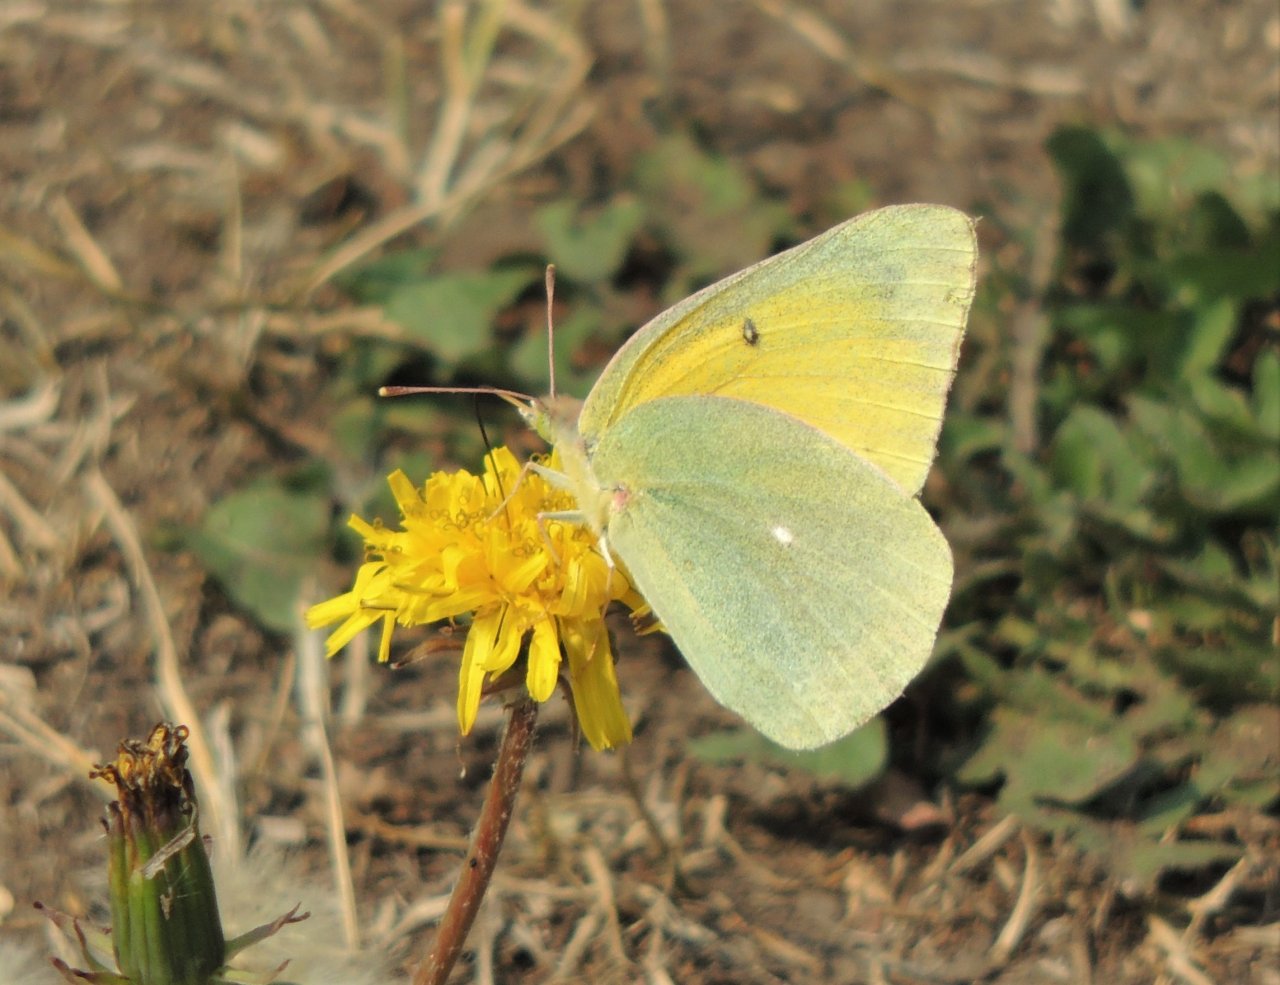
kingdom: Animalia
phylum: Arthropoda
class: Insecta
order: Lepidoptera
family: Pieridae
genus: Colias
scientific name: Colias alexandra
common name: Queen Alexandra's Sulphur
